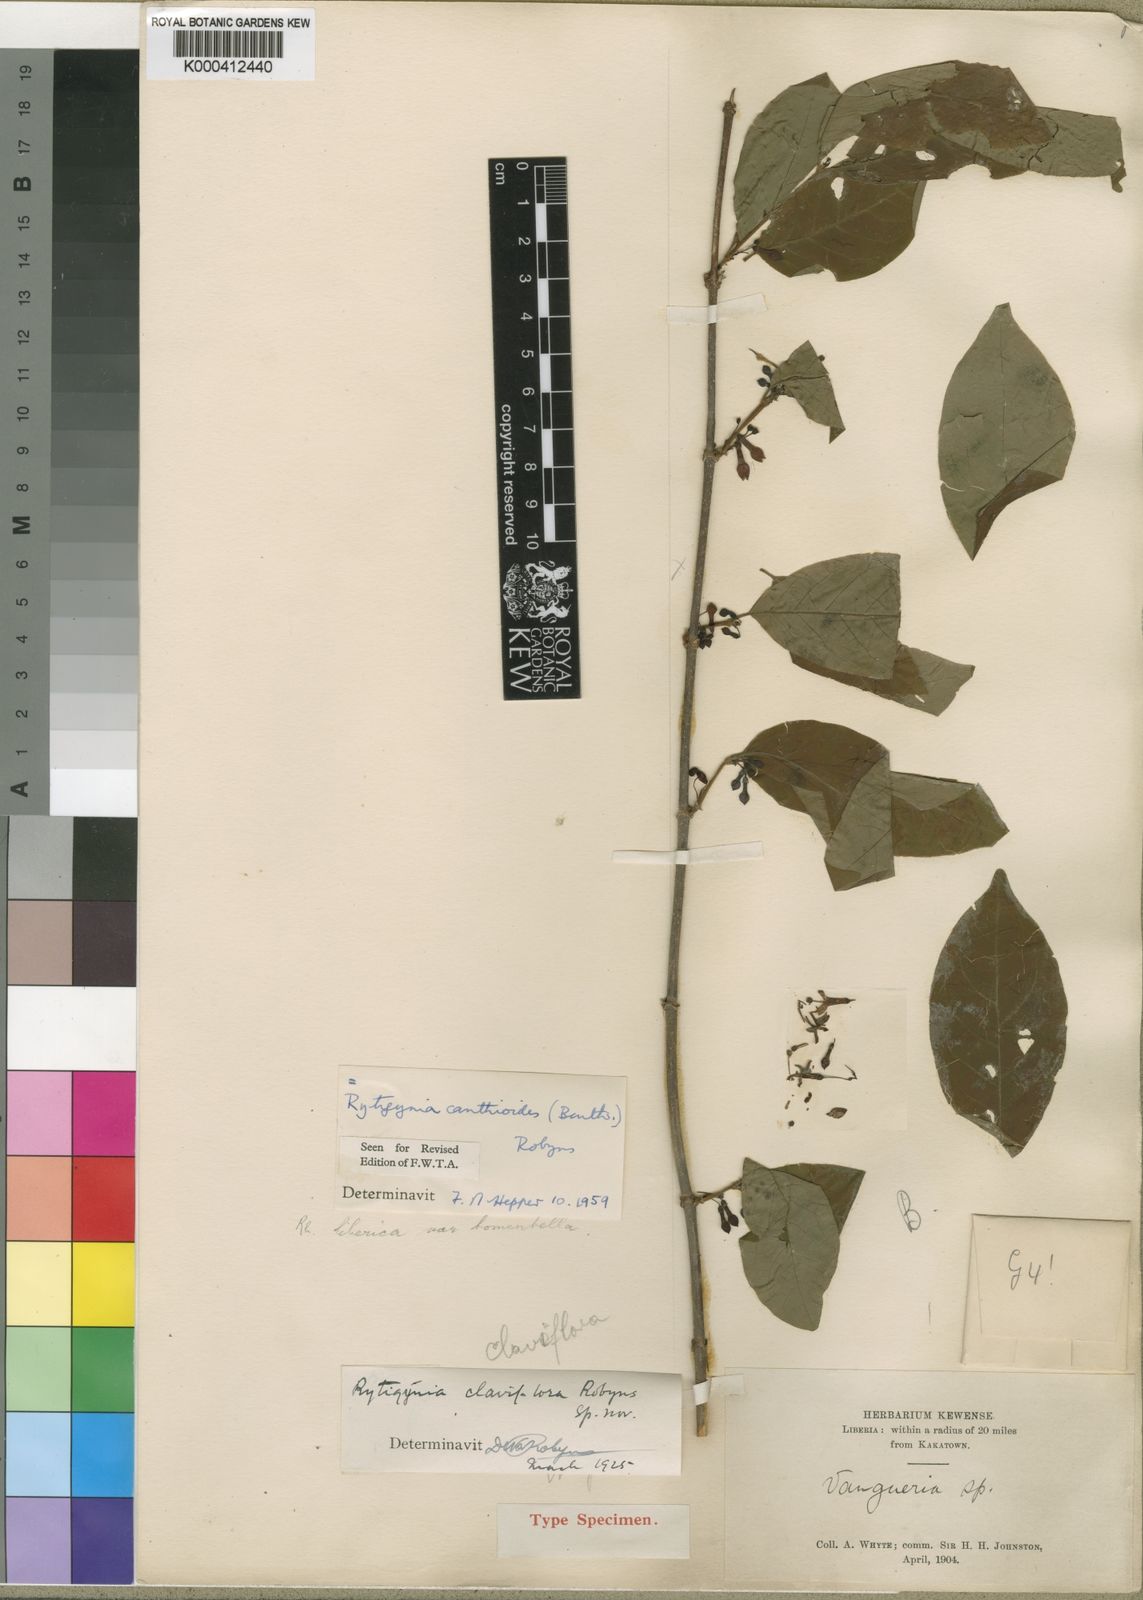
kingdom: Plantae
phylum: Tracheophyta
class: Magnoliopsida
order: Gentianales
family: Rubiaceae
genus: Rytigynia
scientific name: Rytigynia canthioides
